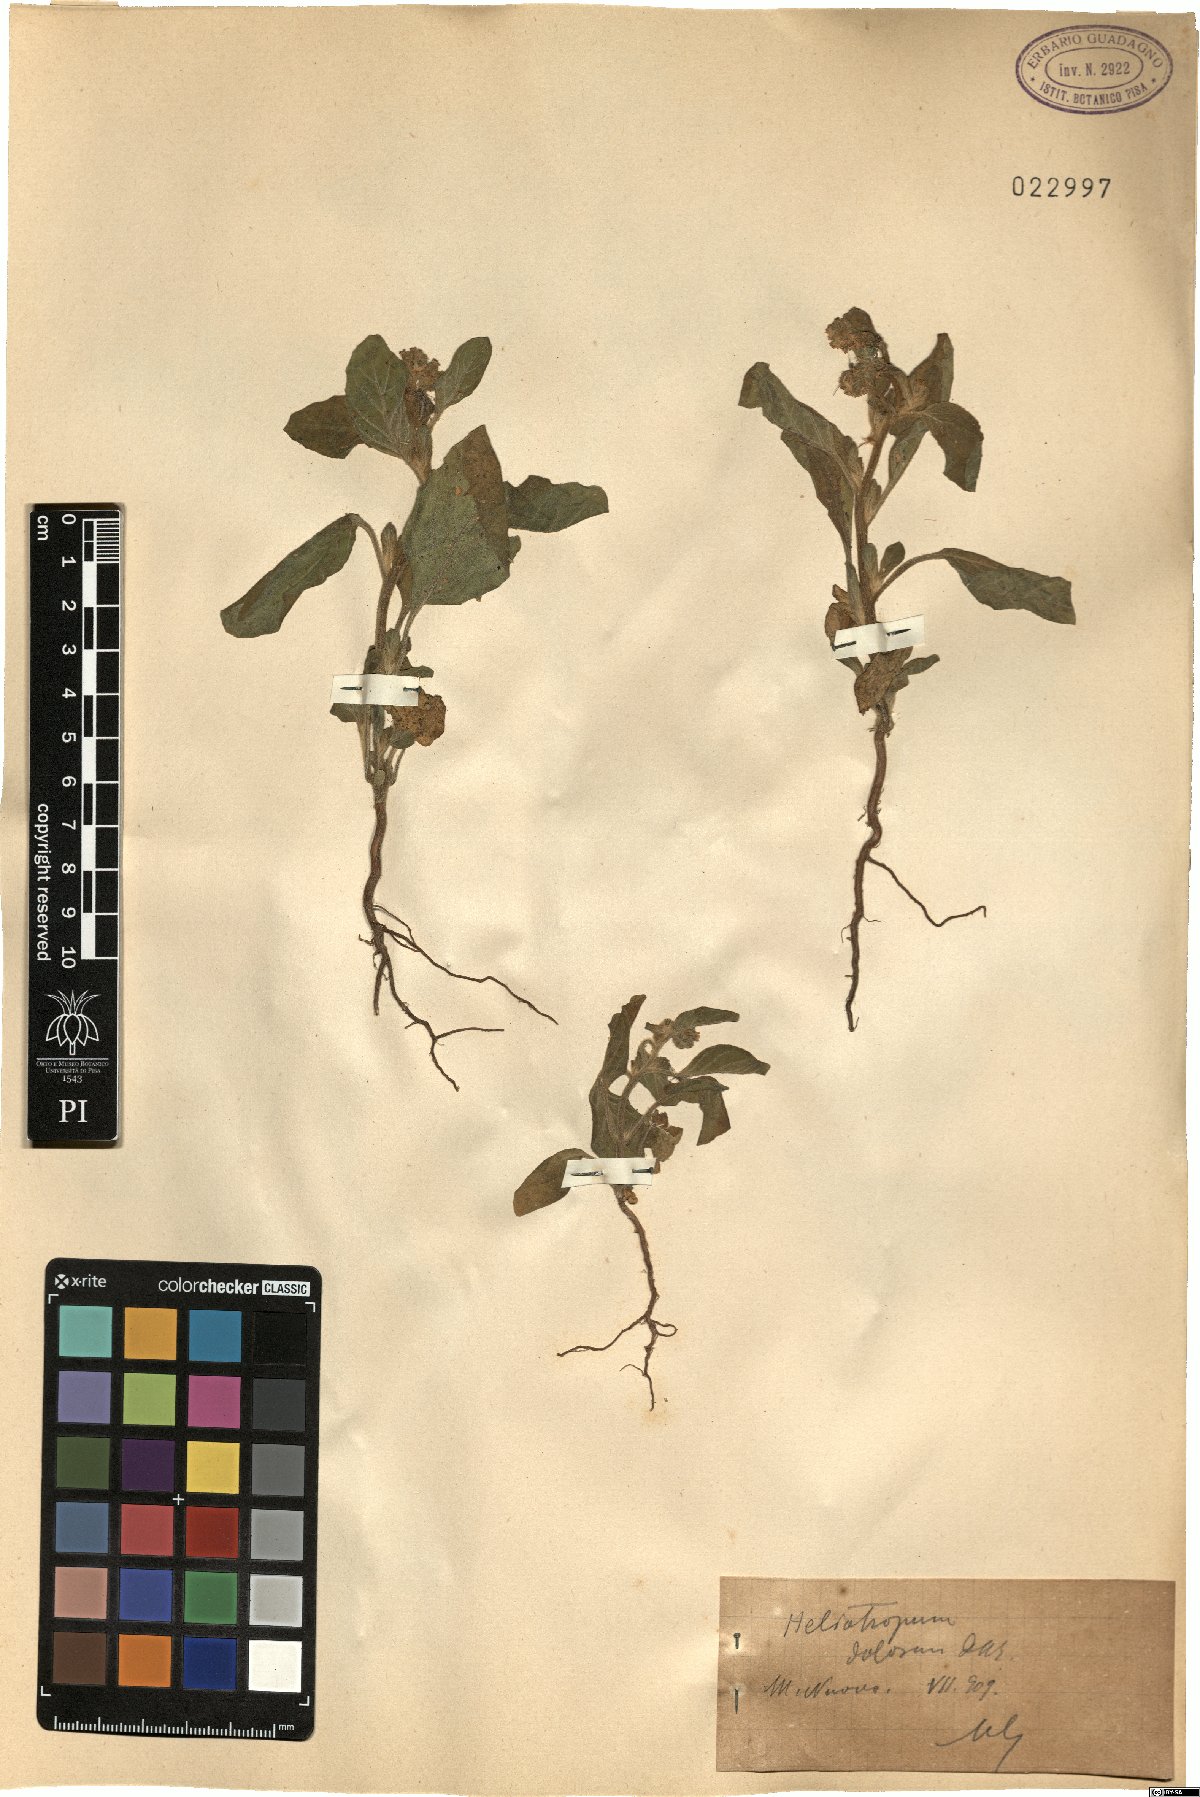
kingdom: Plantae
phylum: Tracheophyta
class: Magnoliopsida
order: Boraginales
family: Heliotropiaceae
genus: Heliotropium
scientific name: Heliotropium dolosum
